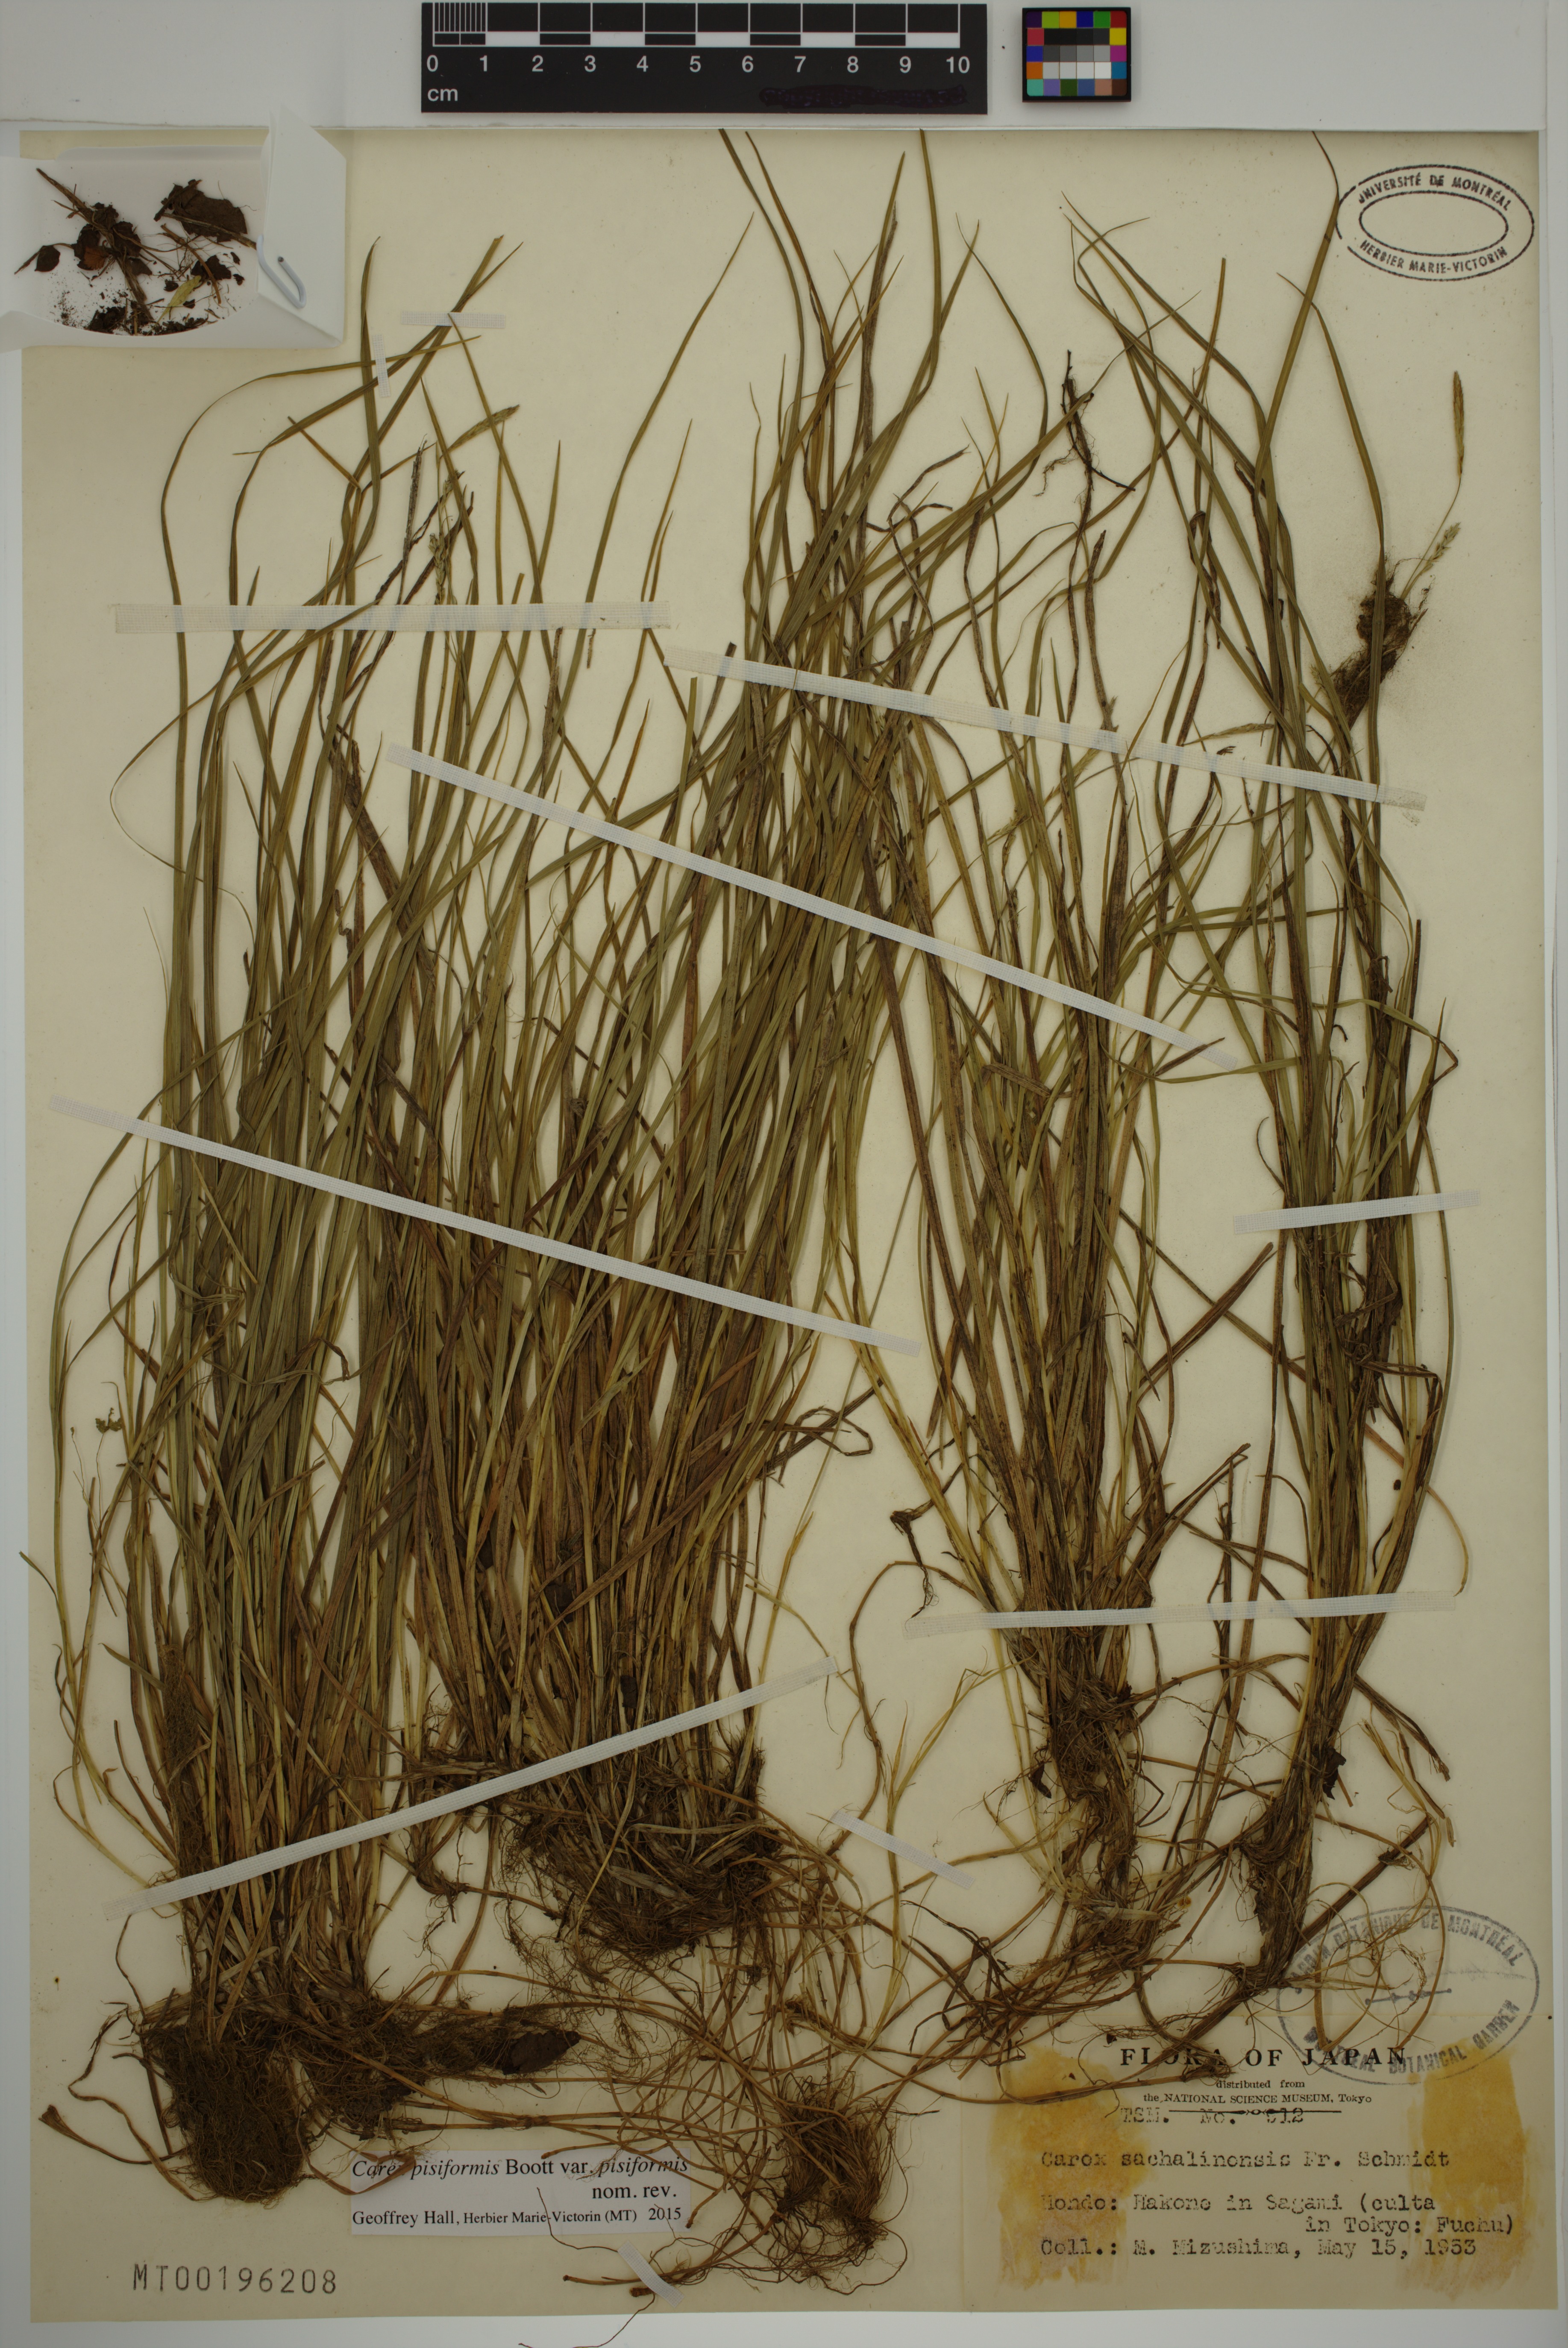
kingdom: Plantae
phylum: Tracheophyta
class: Liliopsida
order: Poales
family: Cyperaceae
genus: Carex
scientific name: Carex pisiformis
